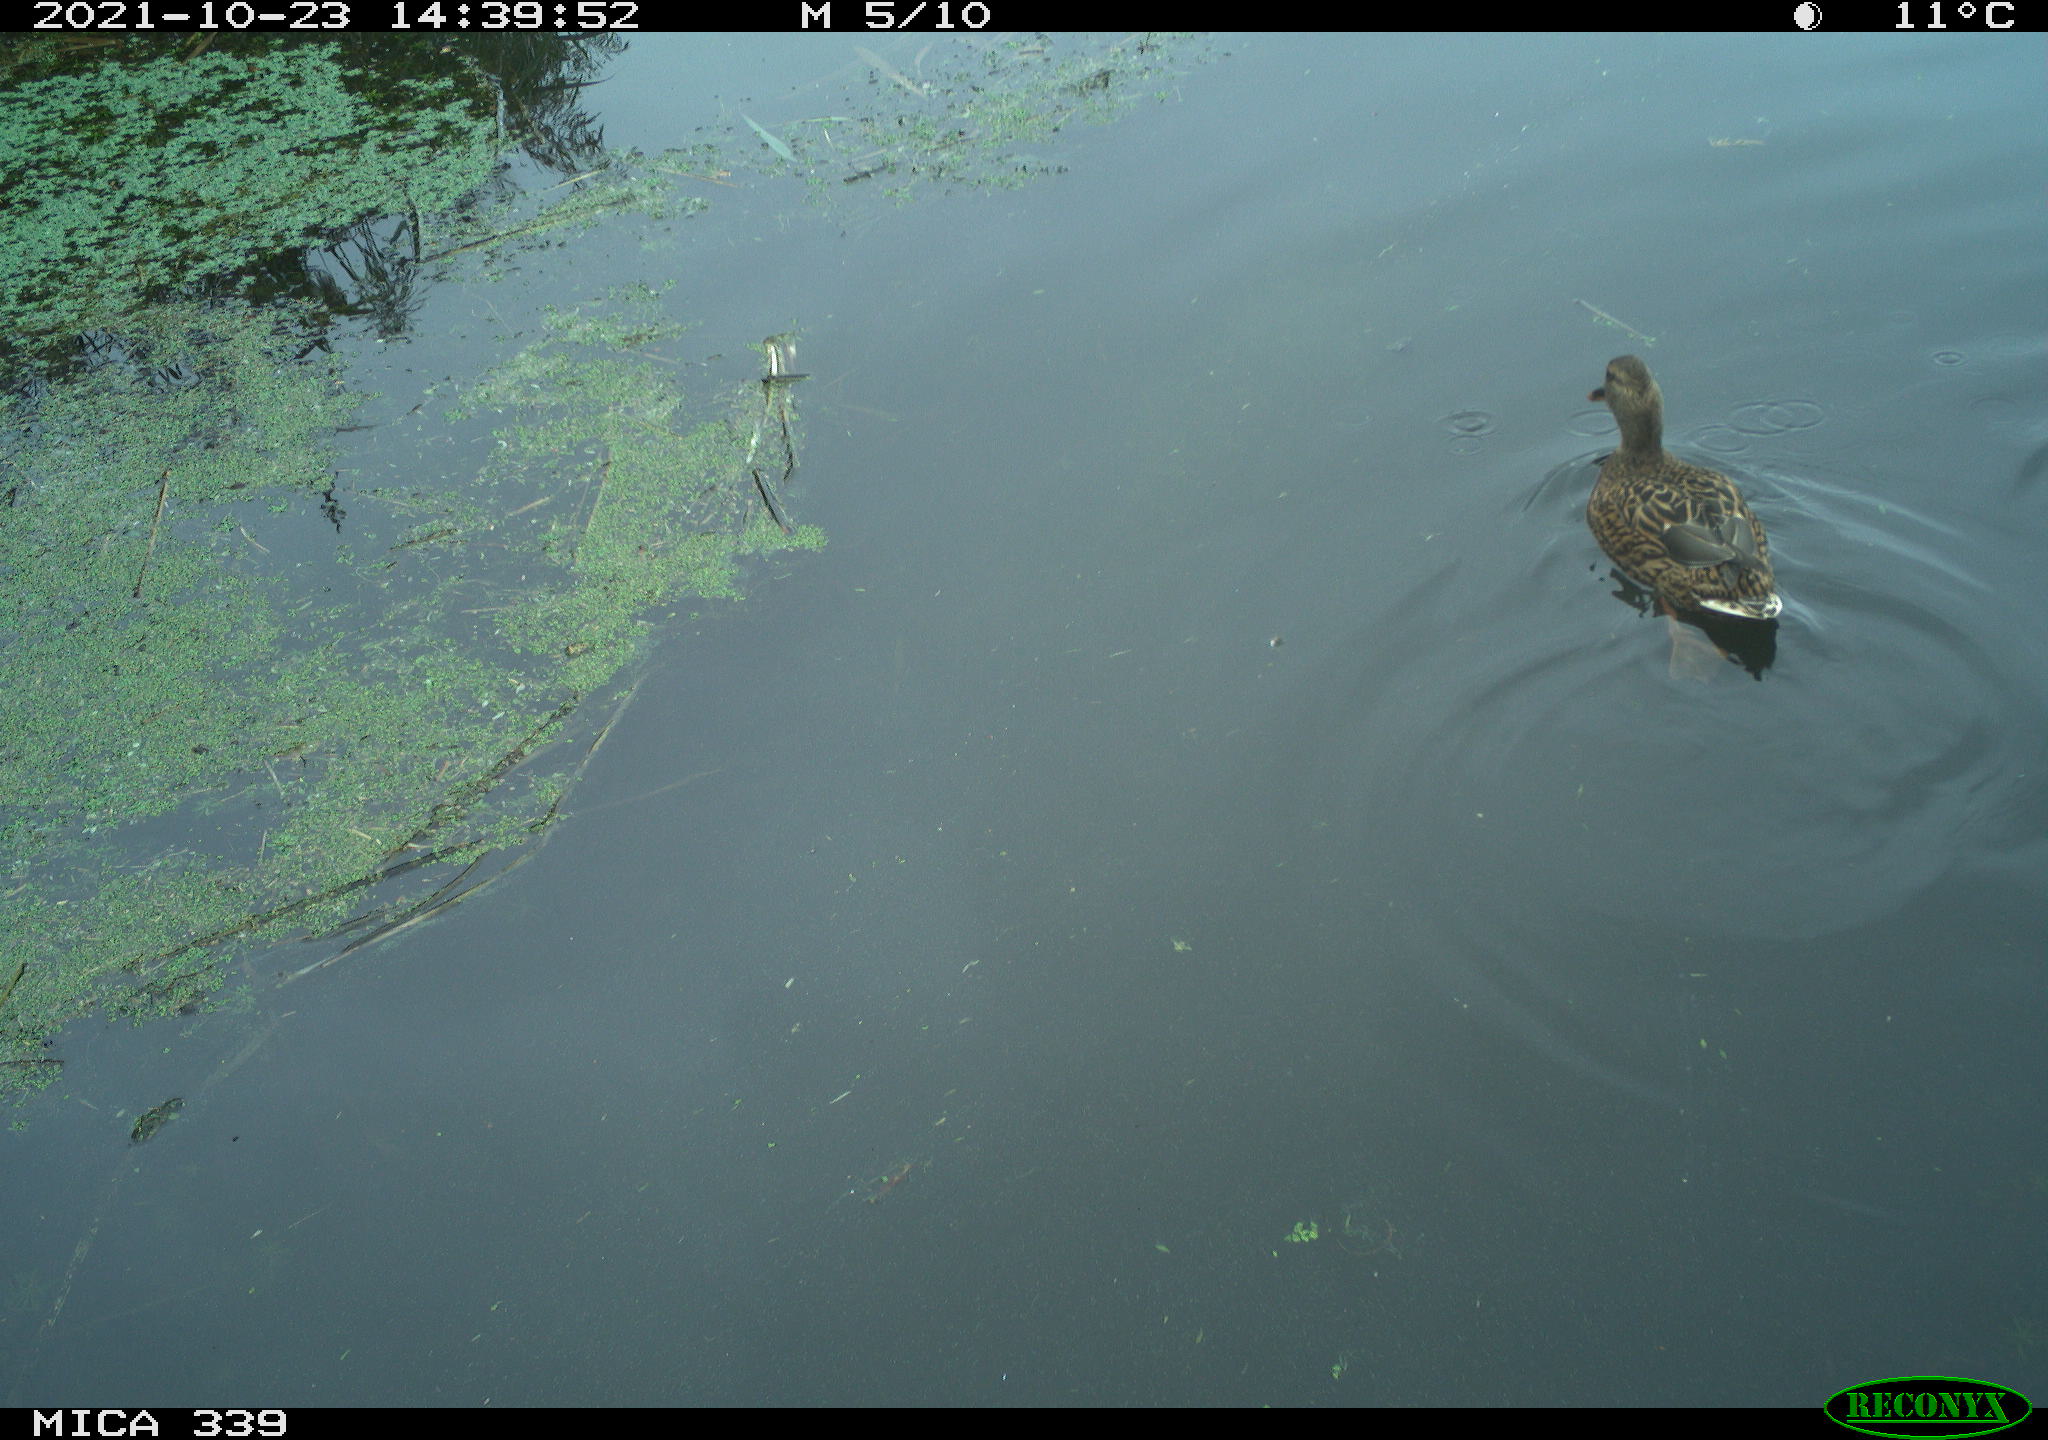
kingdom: Animalia
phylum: Chordata
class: Aves
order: Anseriformes
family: Anatidae
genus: Anas
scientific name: Anas platyrhynchos
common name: Mallard
